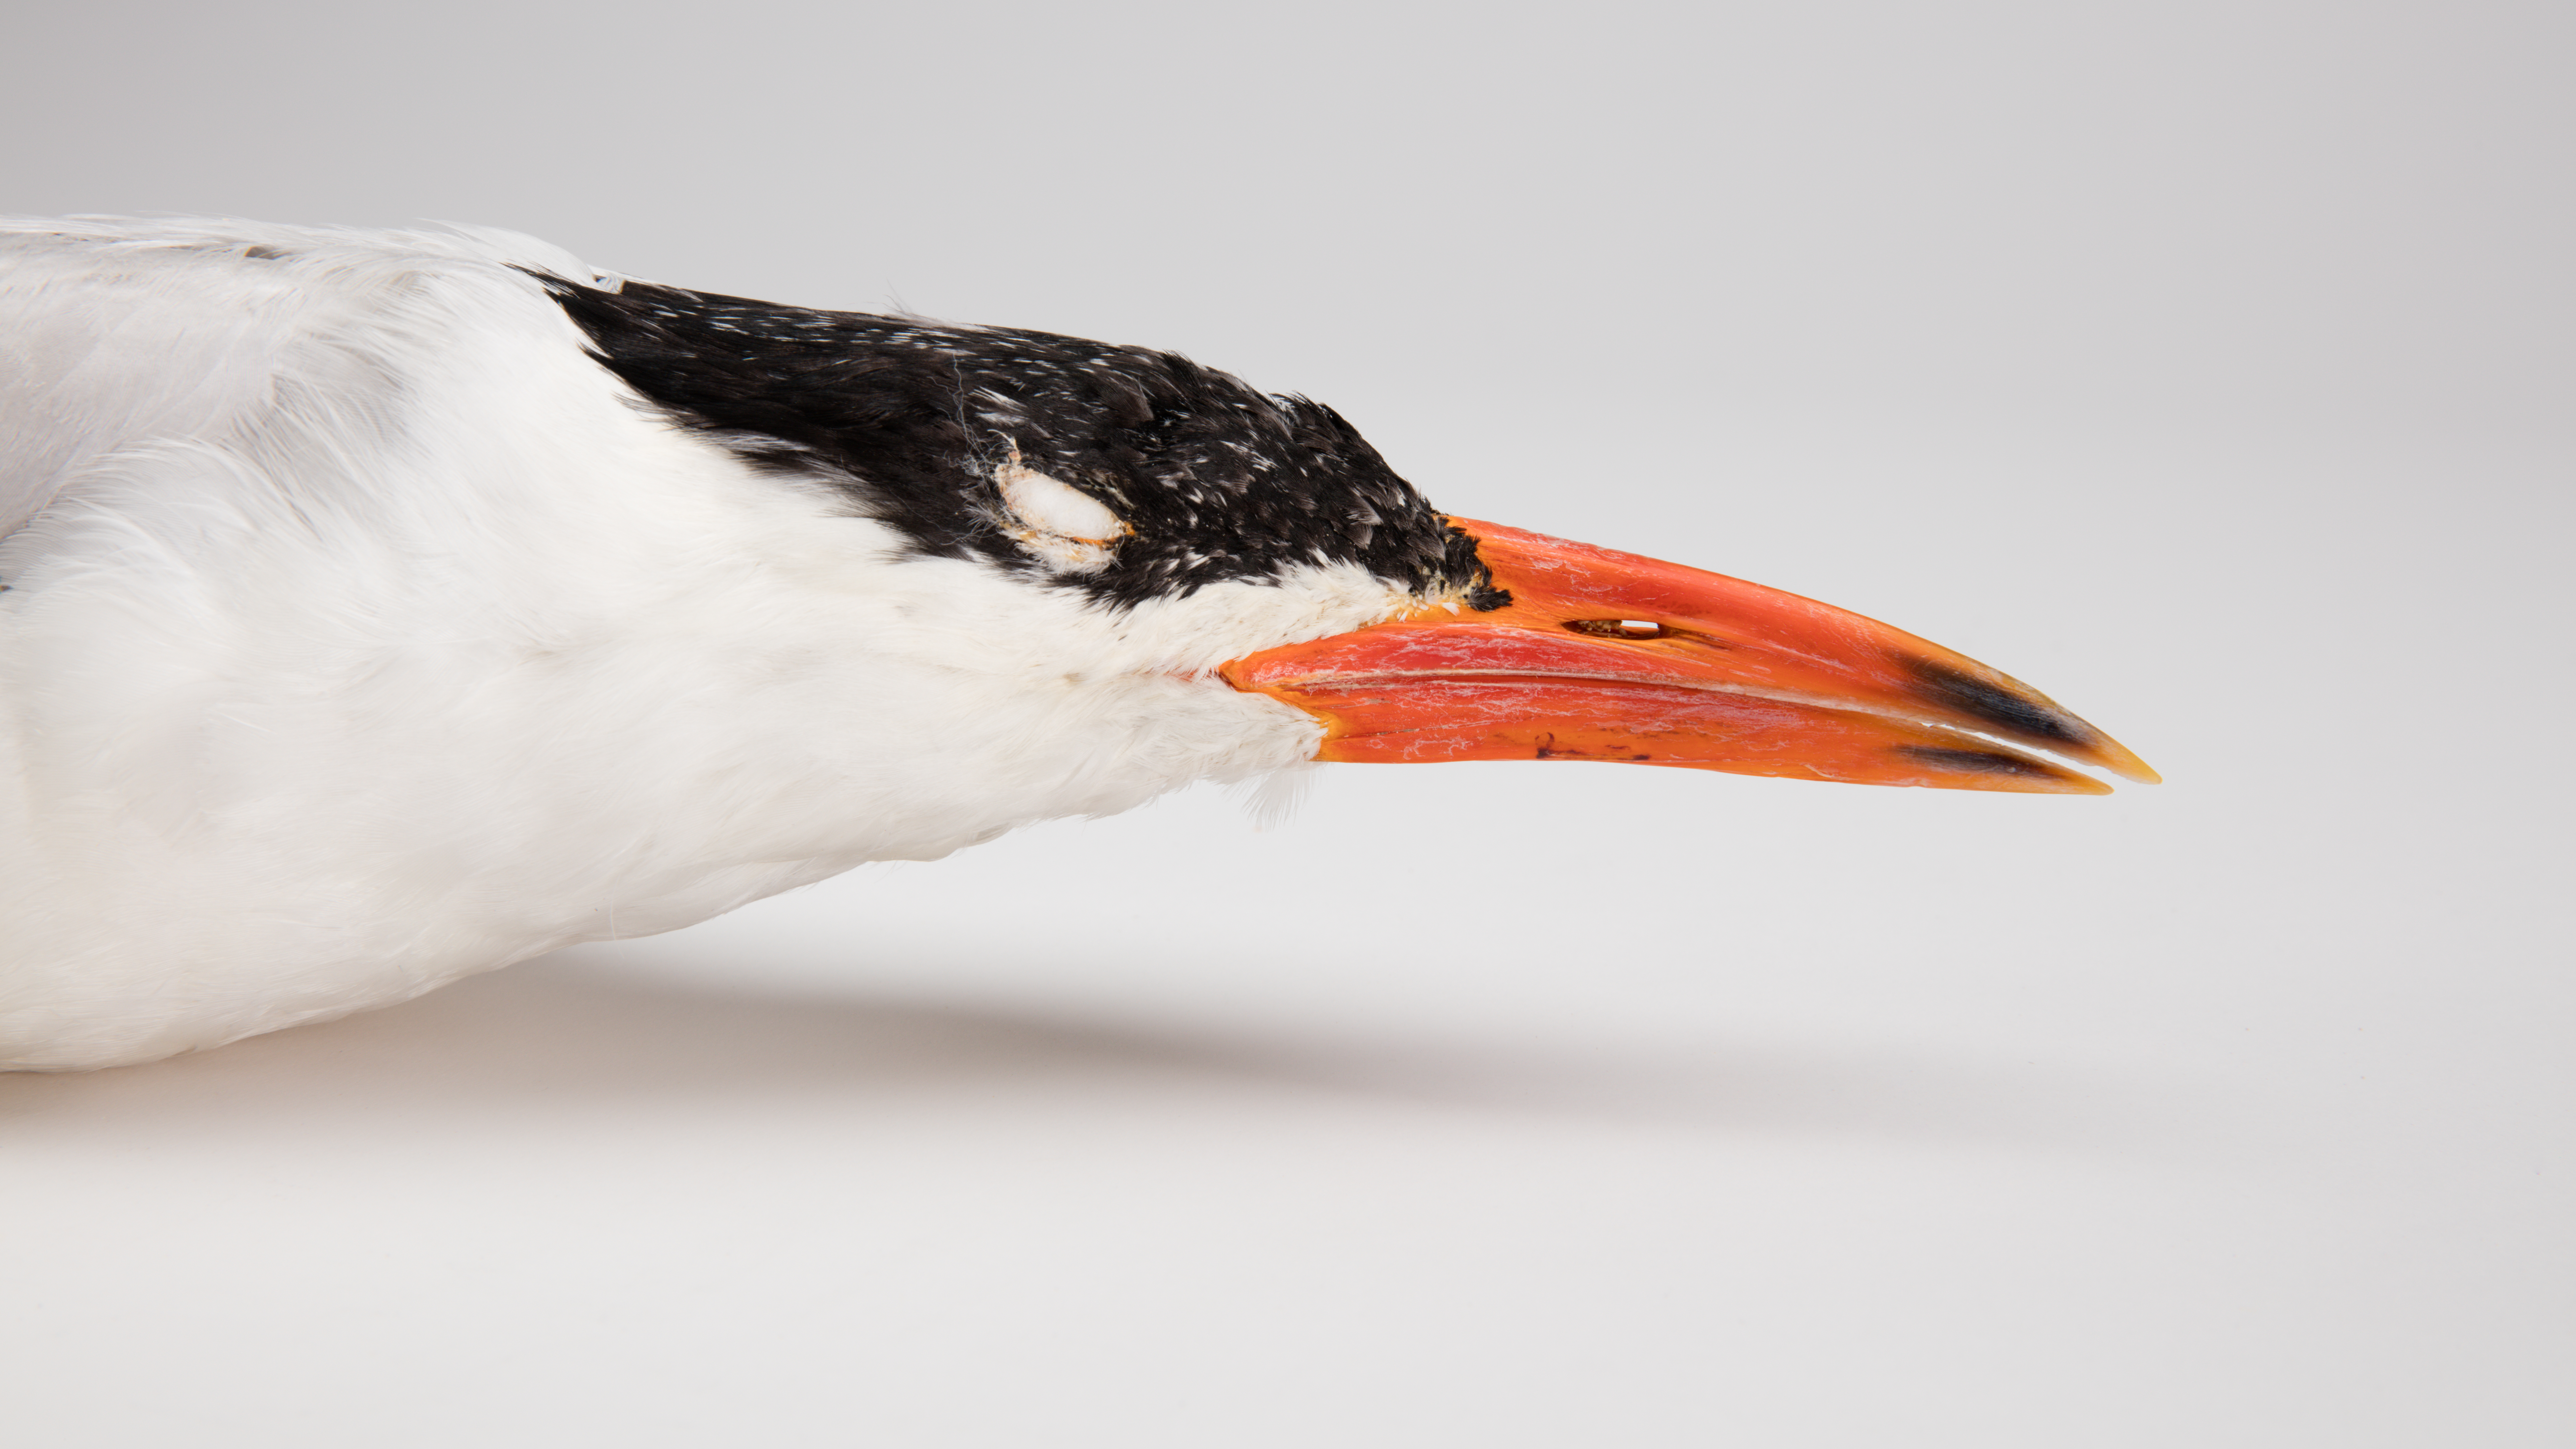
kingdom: Animalia
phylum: Chordata
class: Aves
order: Charadriiformes
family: Laridae
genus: Hydroprogne
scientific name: Hydroprogne caspia
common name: Caspian tern
